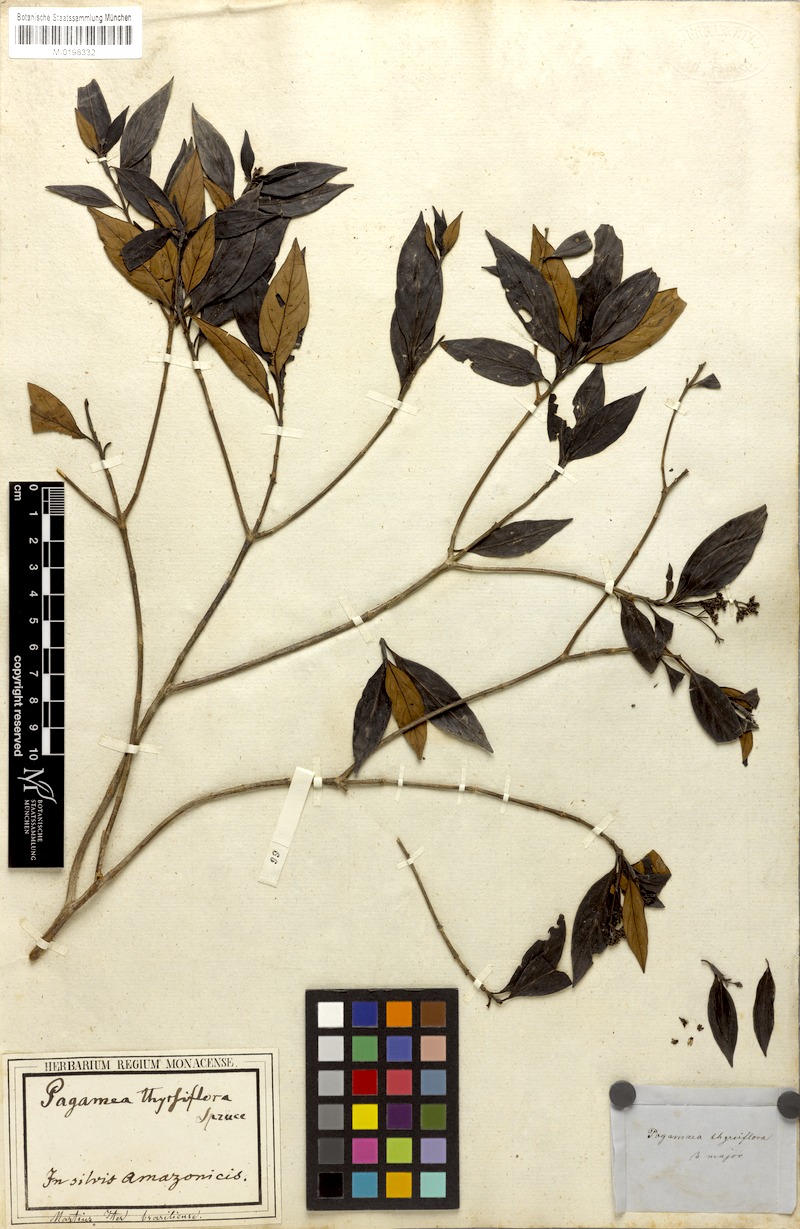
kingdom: Plantae
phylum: Tracheophyta
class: Magnoliopsida
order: Gentianales
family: Rubiaceae
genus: Pagamea
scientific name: Pagamea thyrsiflora
